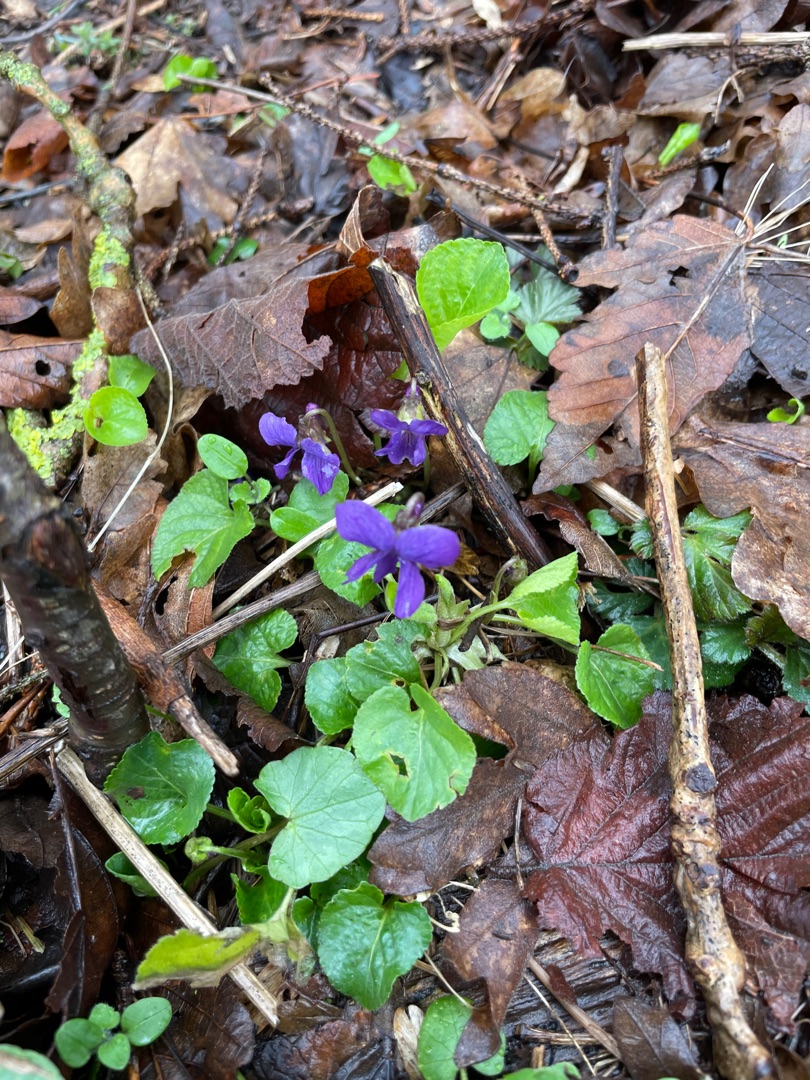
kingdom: Plantae
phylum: Tracheophyta
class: Magnoliopsida
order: Malpighiales
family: Violaceae
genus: Viola
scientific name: Viola odorata
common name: Marts-viol
